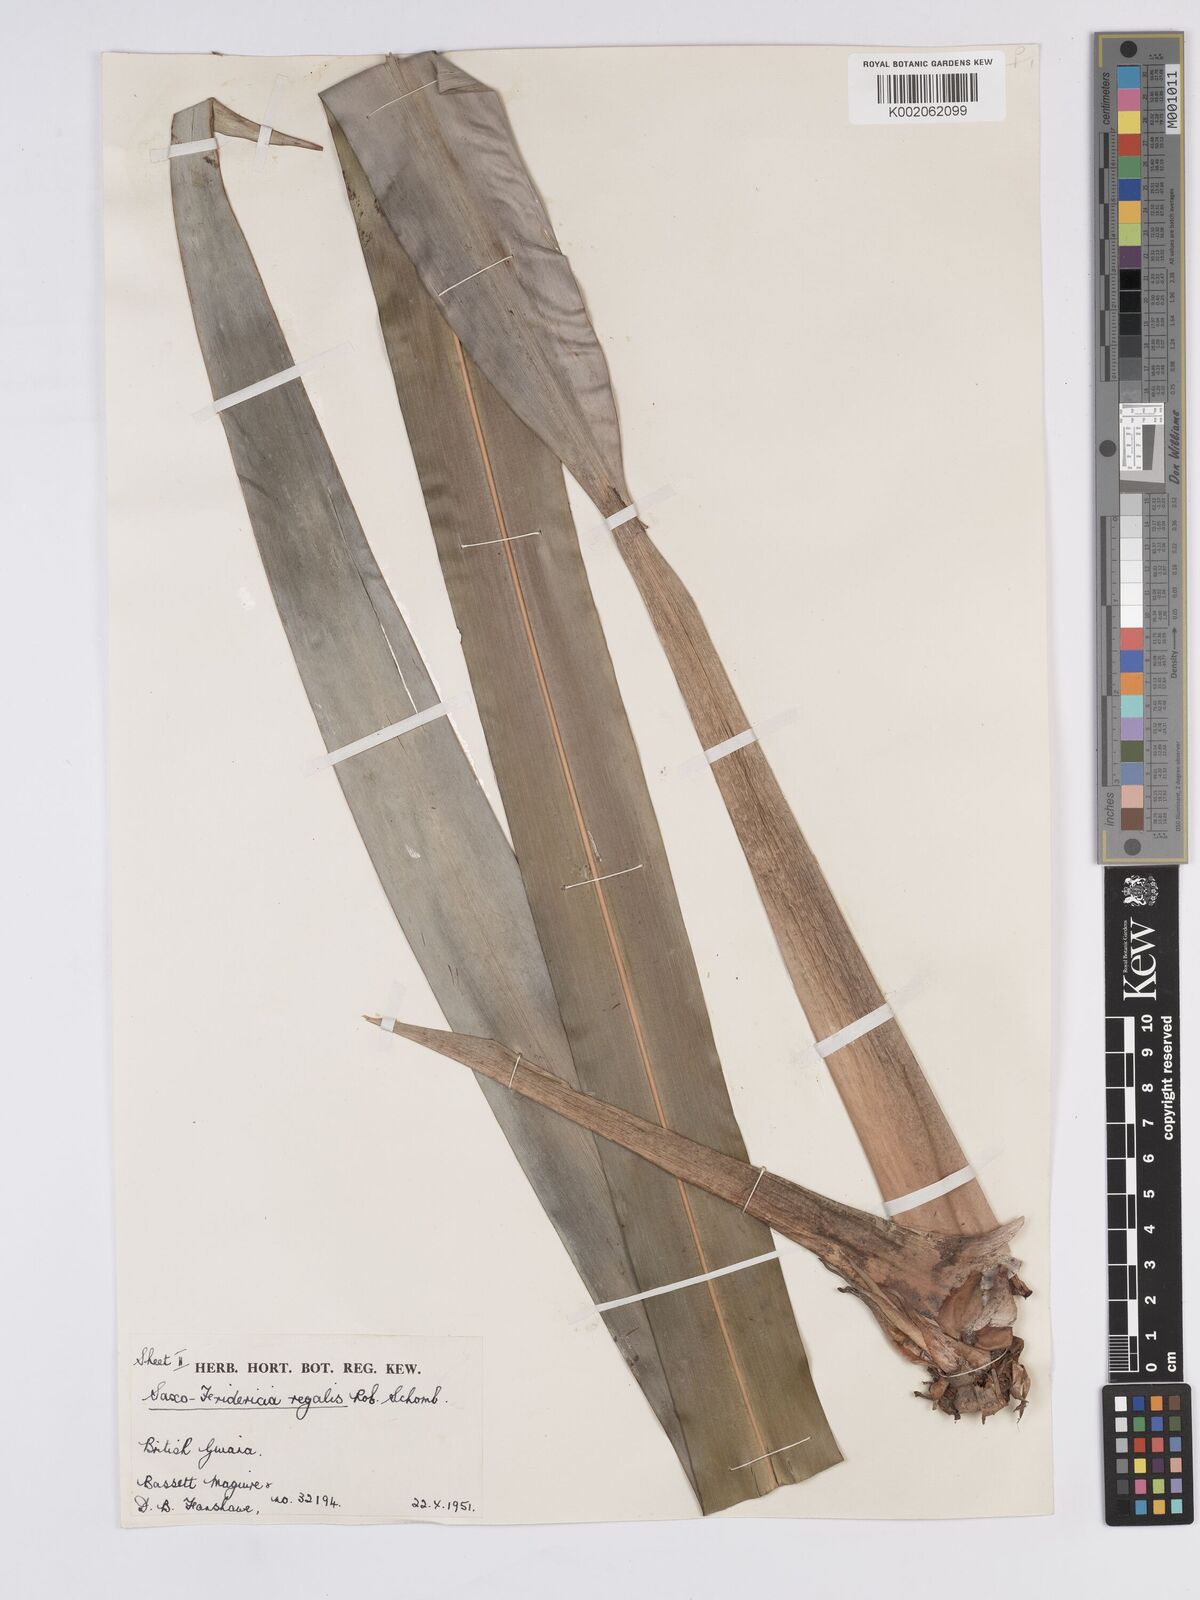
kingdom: Plantae
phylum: Tracheophyta
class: Liliopsida
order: Poales
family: Rapateaceae
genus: Saxofridericia
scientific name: Saxofridericia regalis
